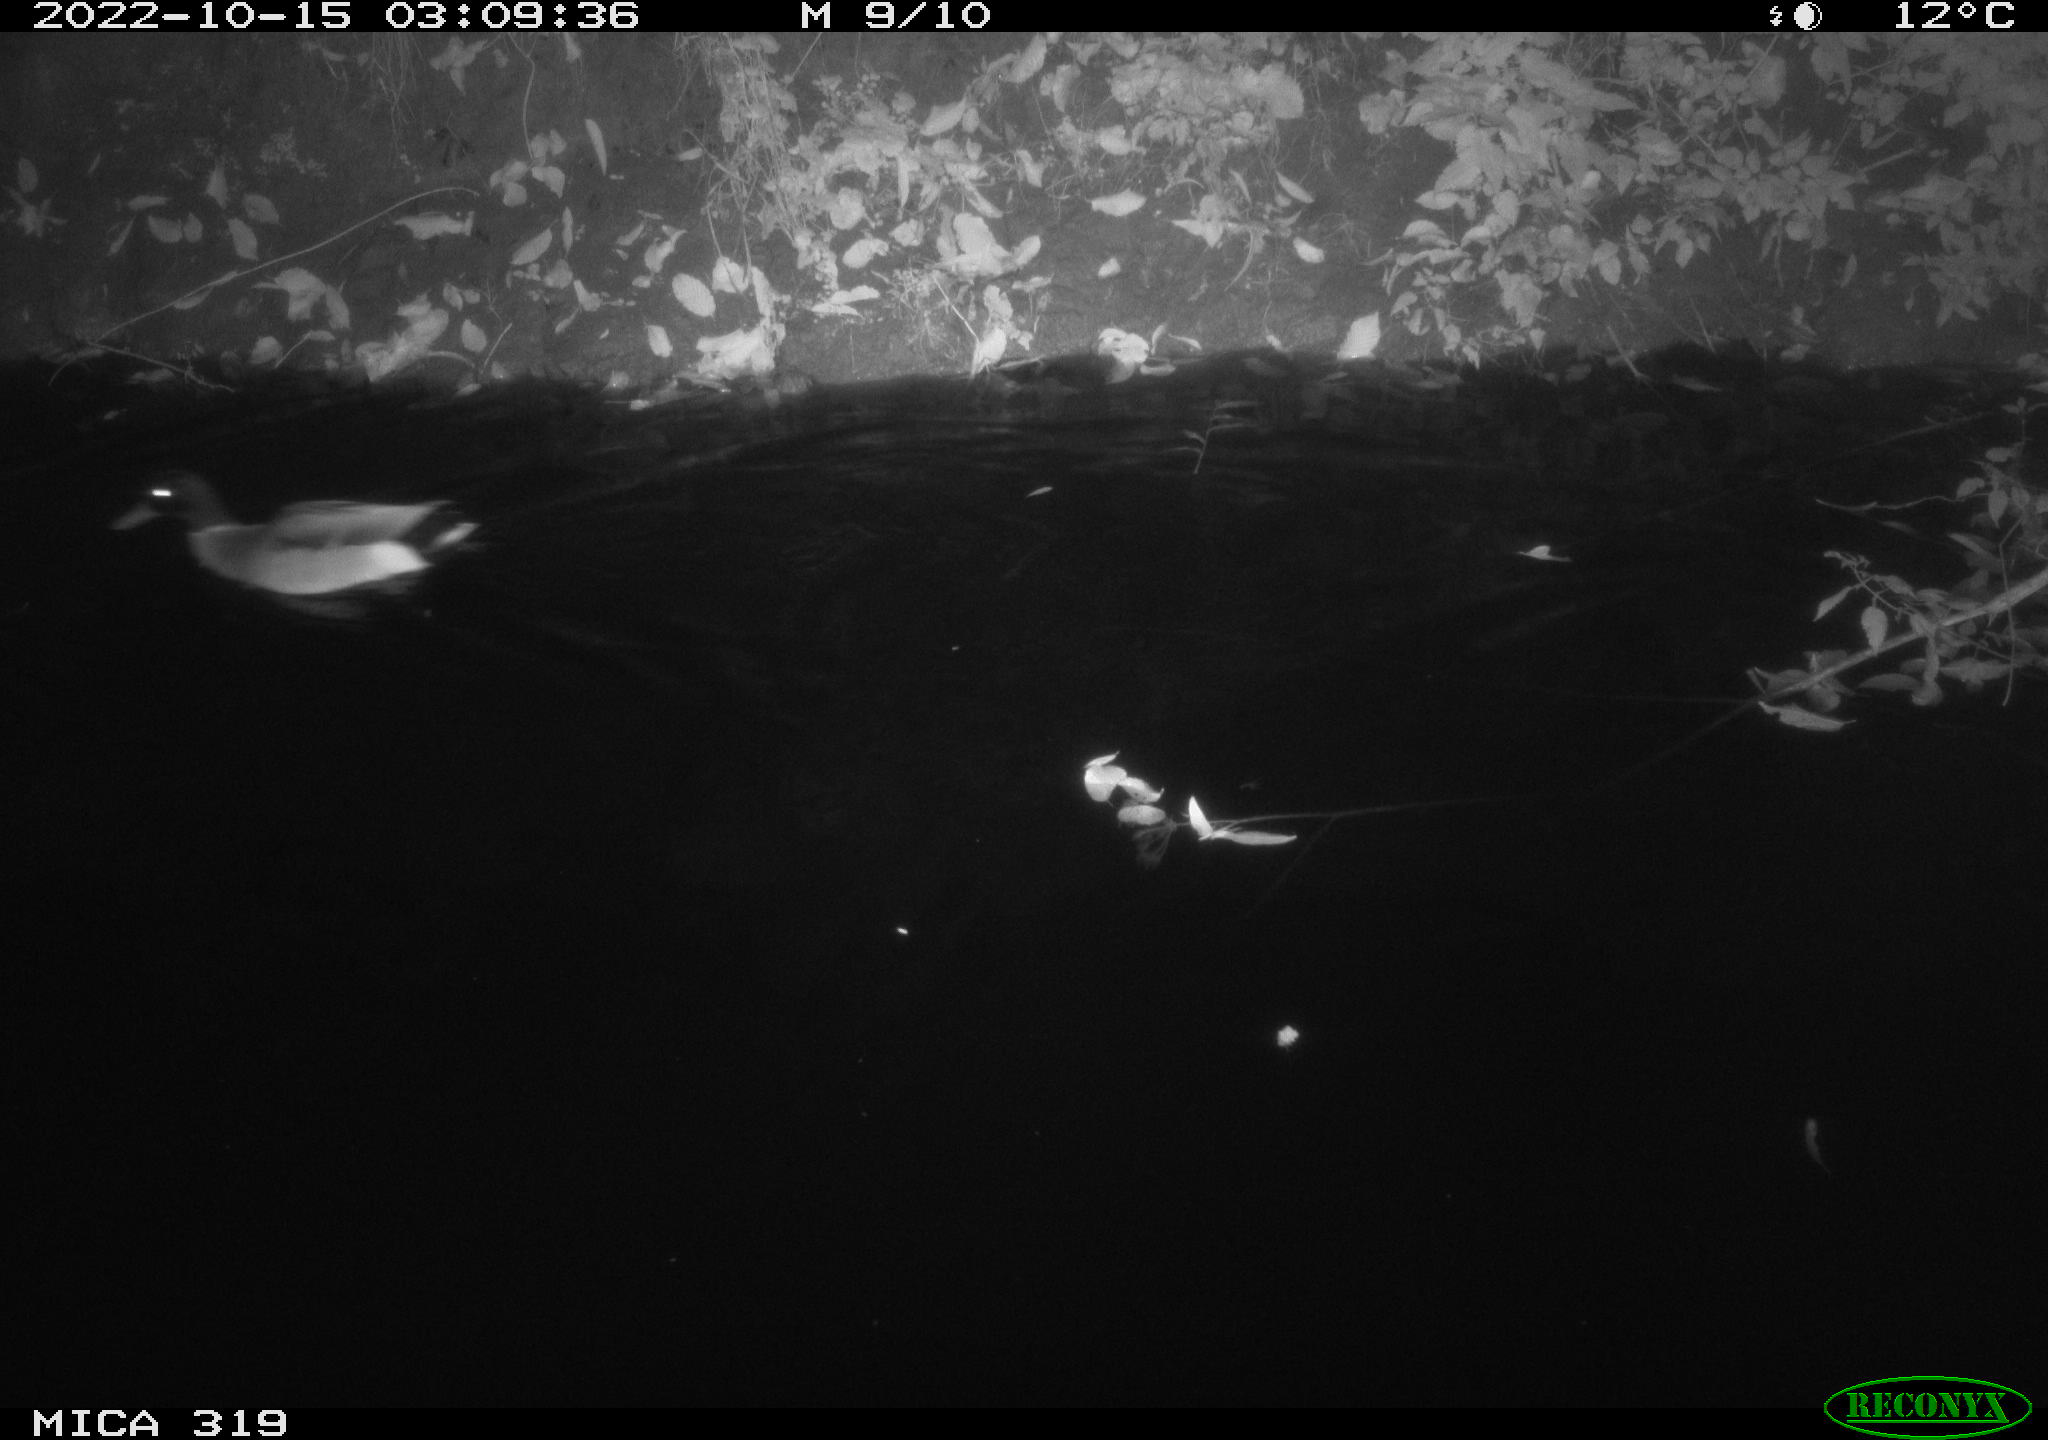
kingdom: Animalia
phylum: Chordata
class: Aves
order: Anseriformes
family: Anatidae
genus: Anas
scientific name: Anas
